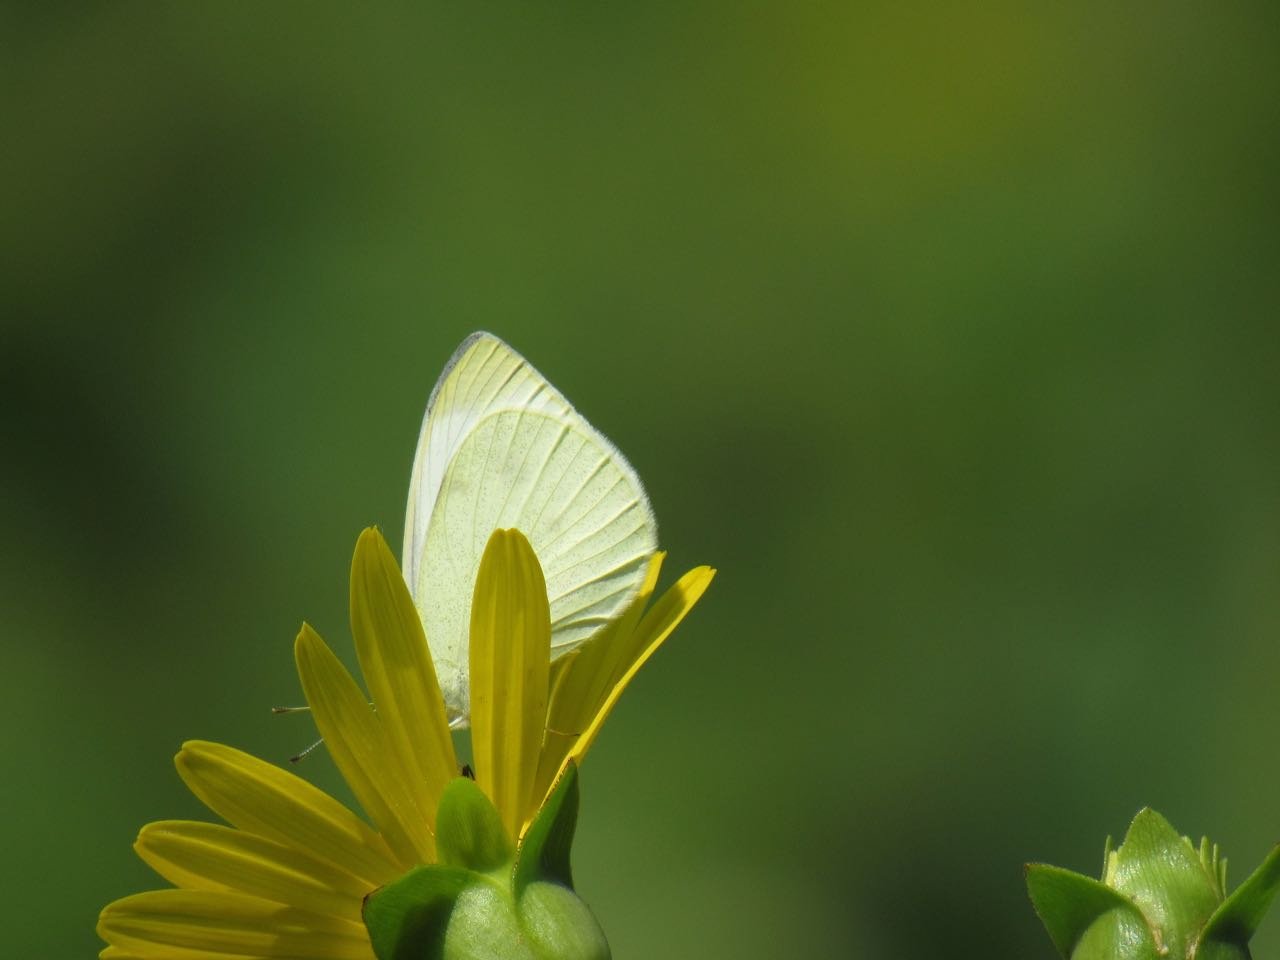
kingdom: Animalia
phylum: Arthropoda
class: Insecta
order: Lepidoptera
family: Pieridae
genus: Pieris
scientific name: Pieris rapae
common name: Cabbage White
